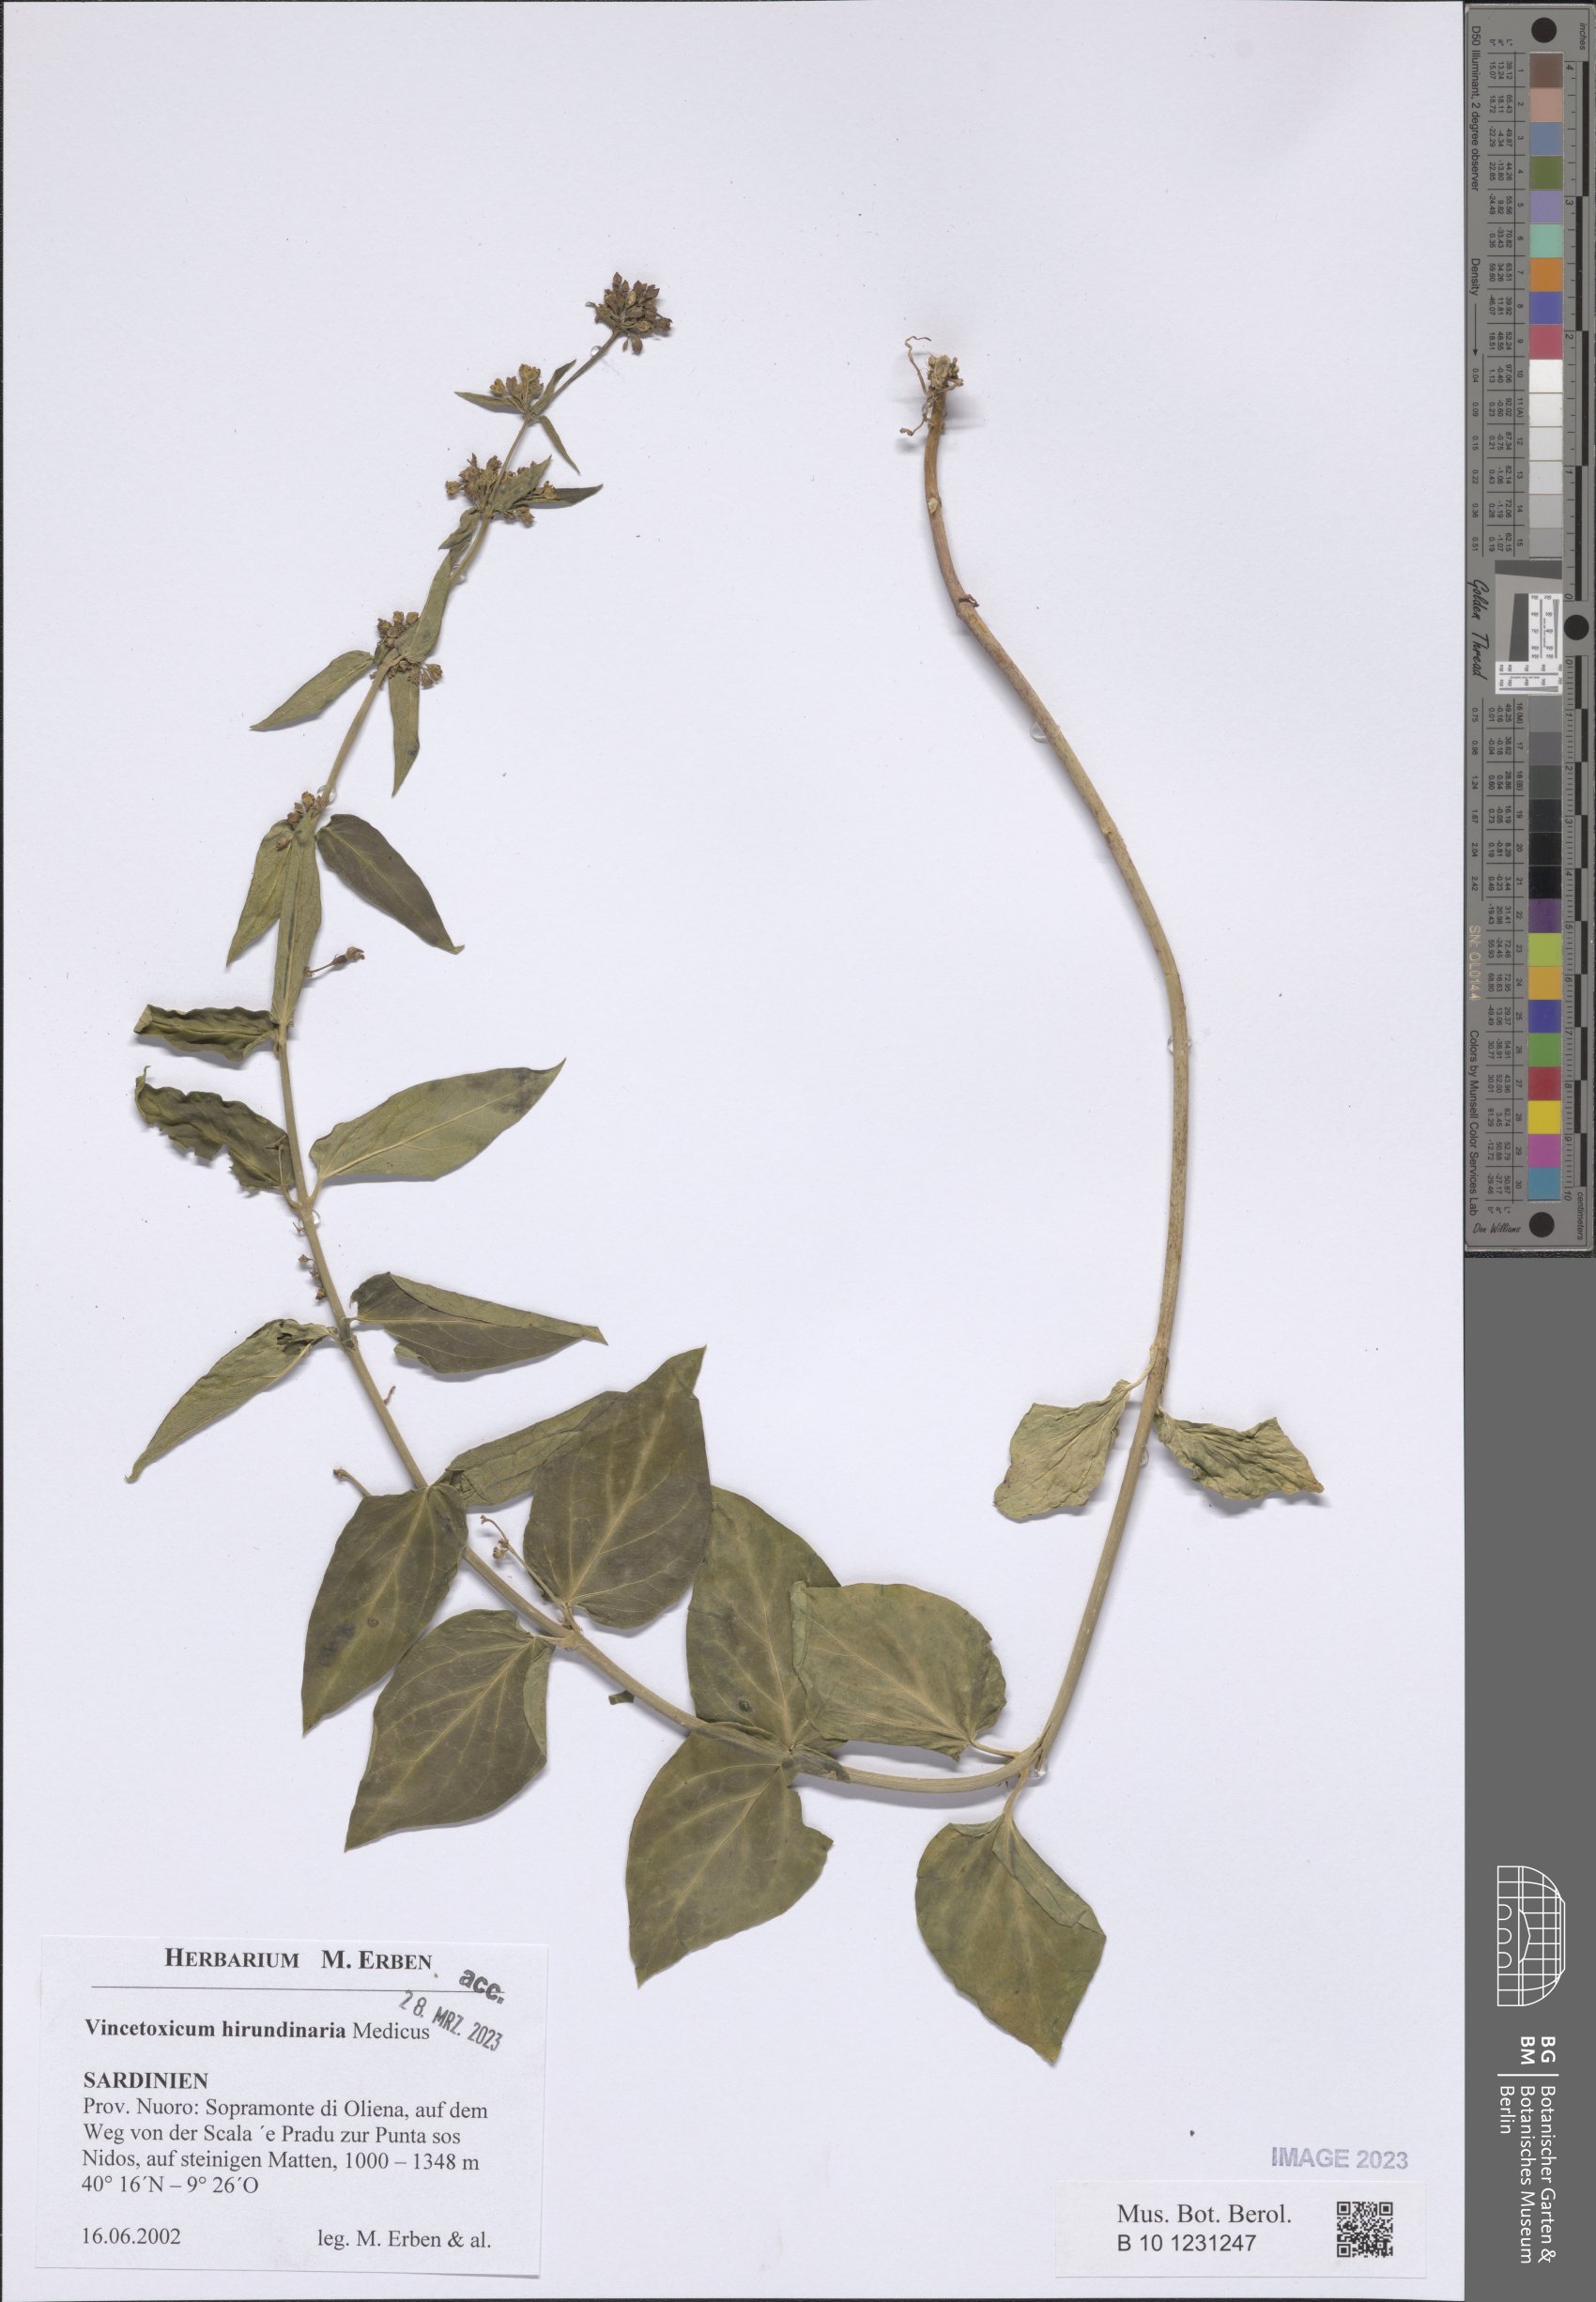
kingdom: Plantae
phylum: Tracheophyta
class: Magnoliopsida
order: Gentianales
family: Apocynaceae
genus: Vincetoxicum
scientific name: Vincetoxicum hirundinaria
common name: White swallowwort
